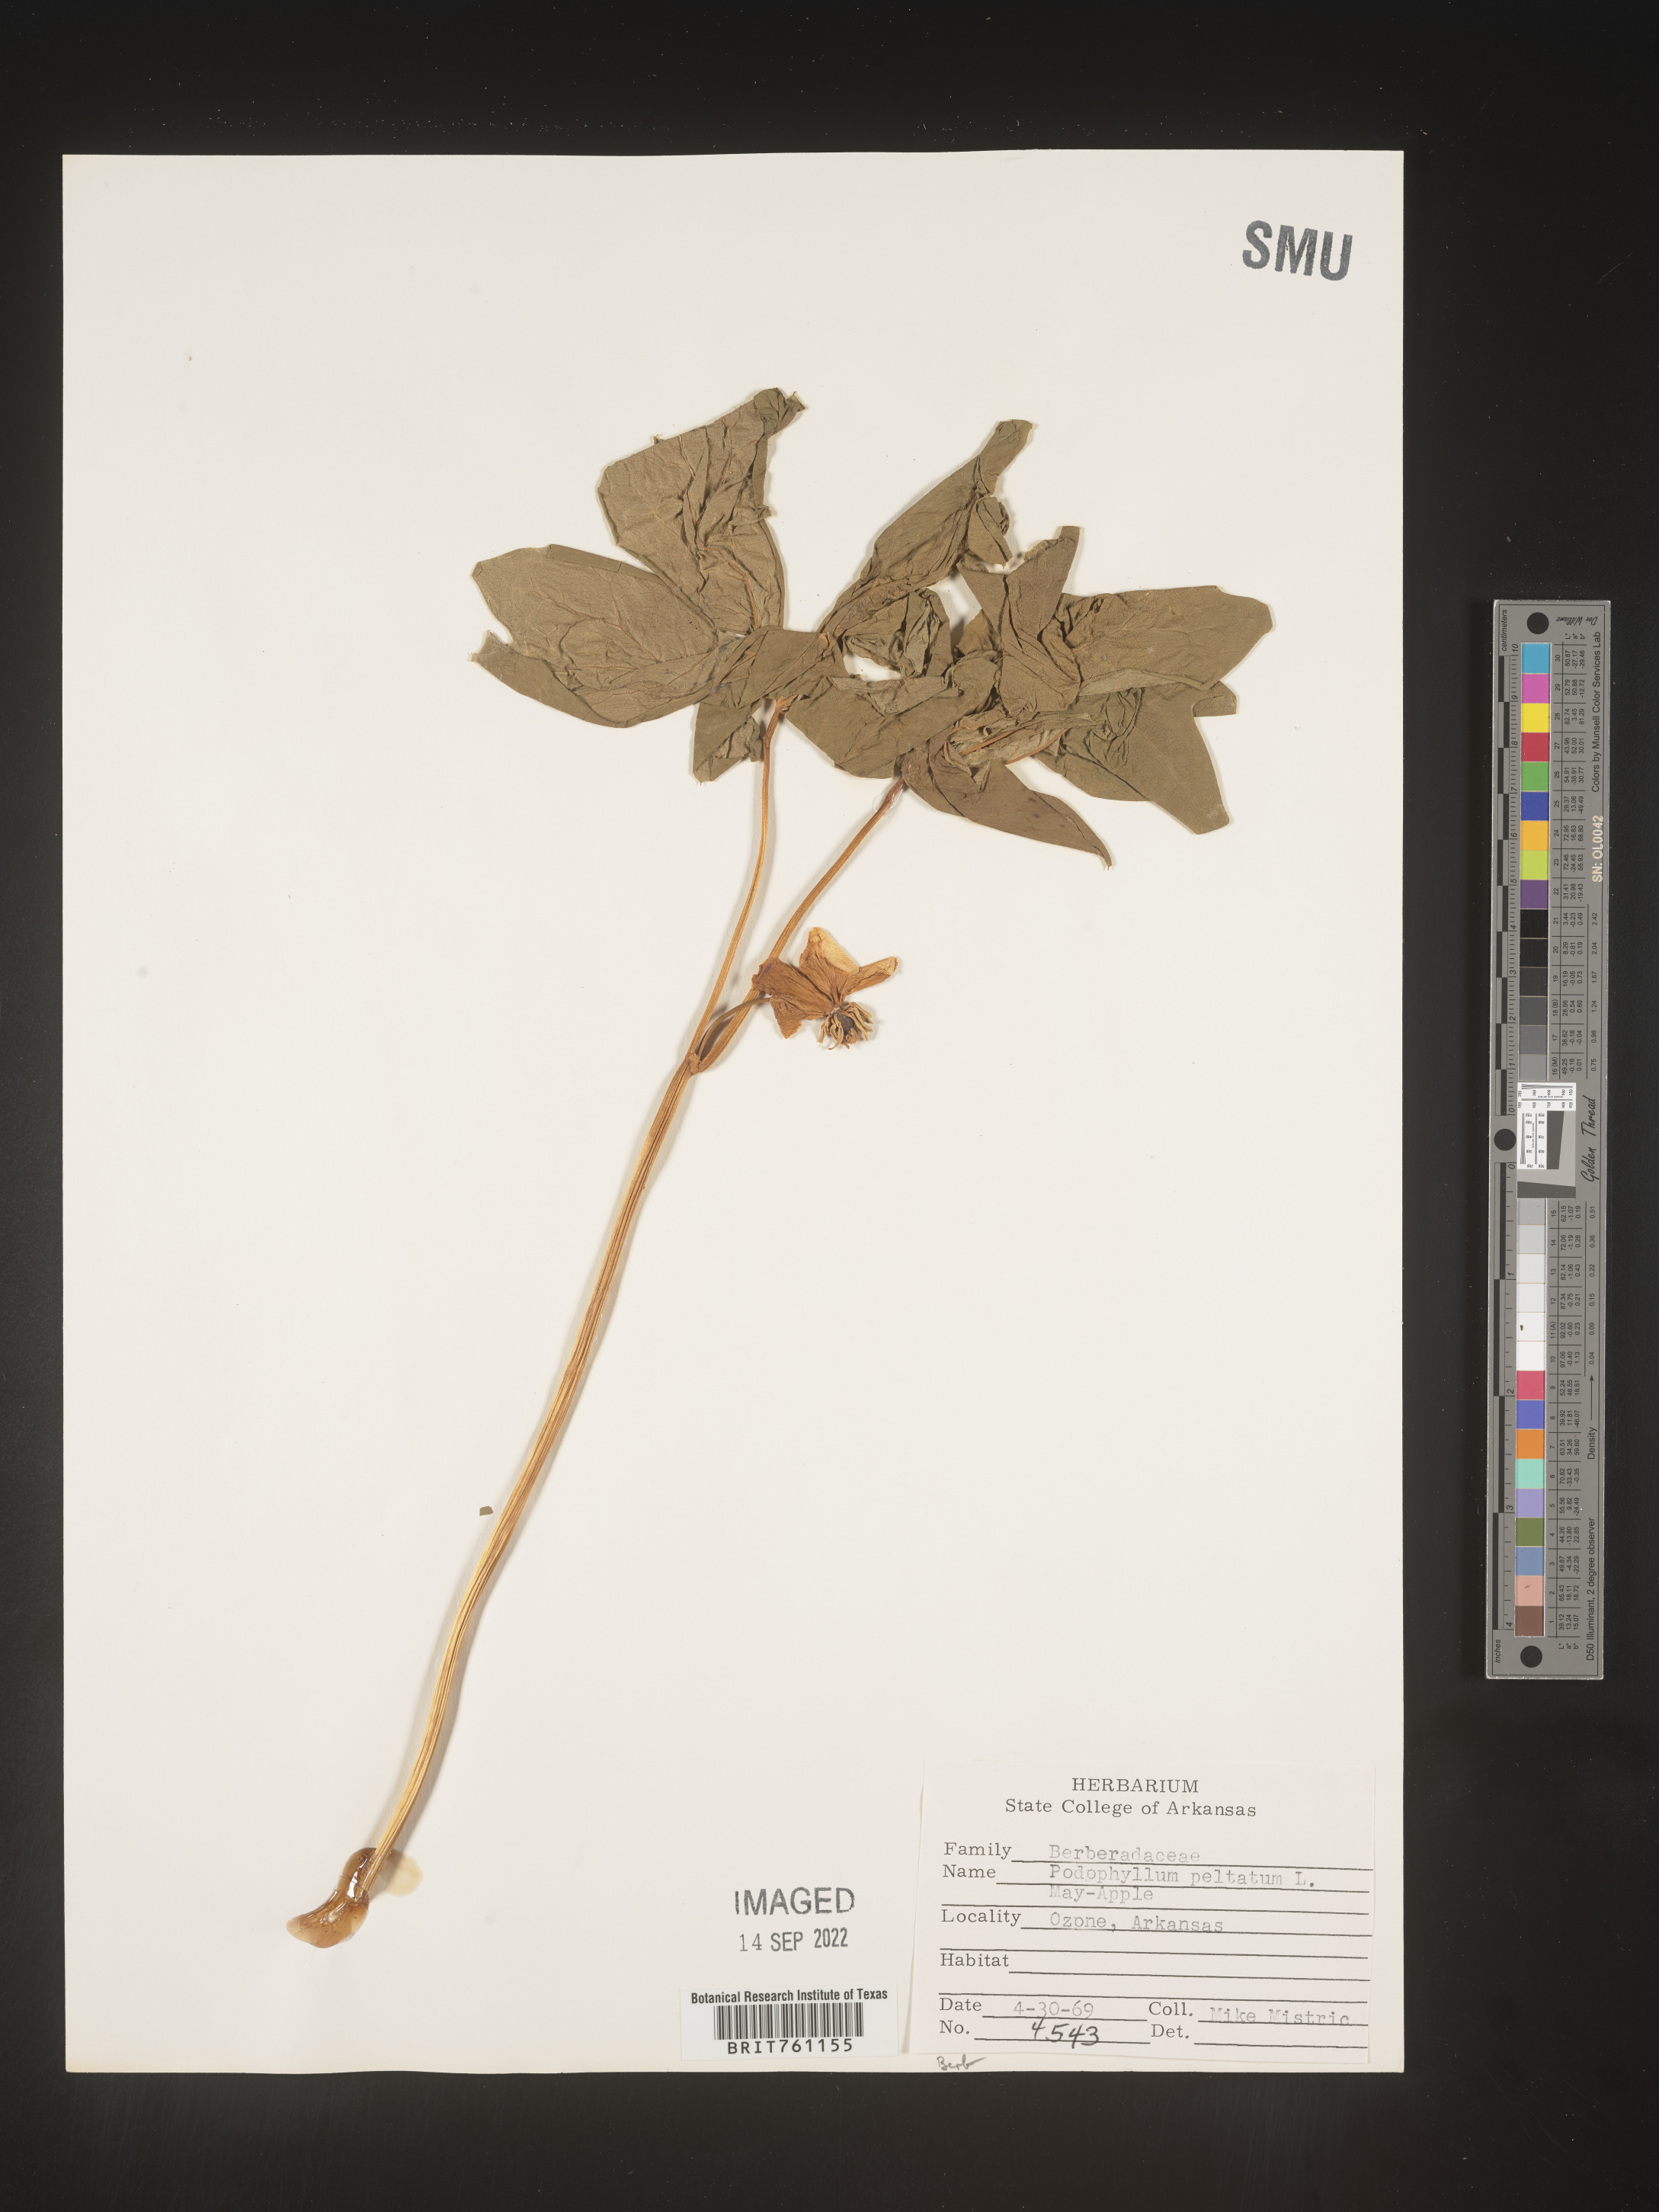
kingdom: Plantae
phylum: Tracheophyta
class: Magnoliopsida
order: Ranunculales
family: Berberidaceae
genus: Podophyllum
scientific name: Podophyllum peltatum
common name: Wild mandrake
